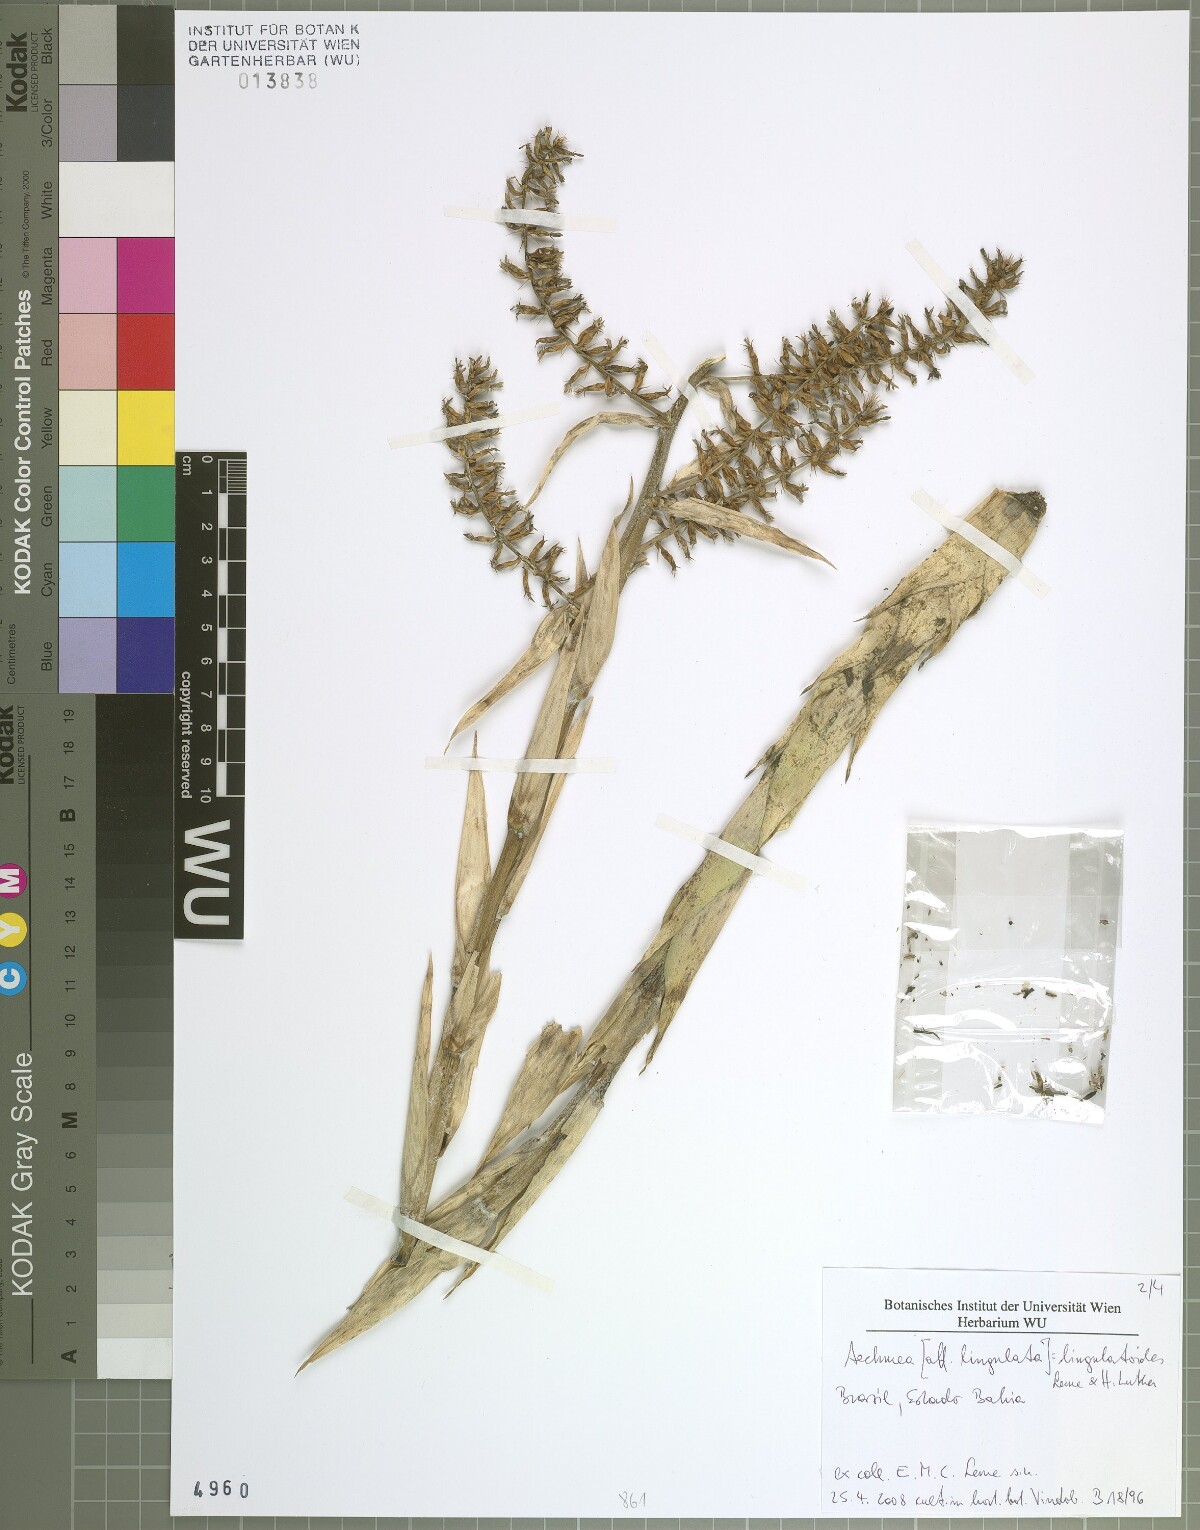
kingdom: Plantae
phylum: Tracheophyta
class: Liliopsida
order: Poales
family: Bromeliaceae
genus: Wittmackia
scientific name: Wittmackia lingulatoides
